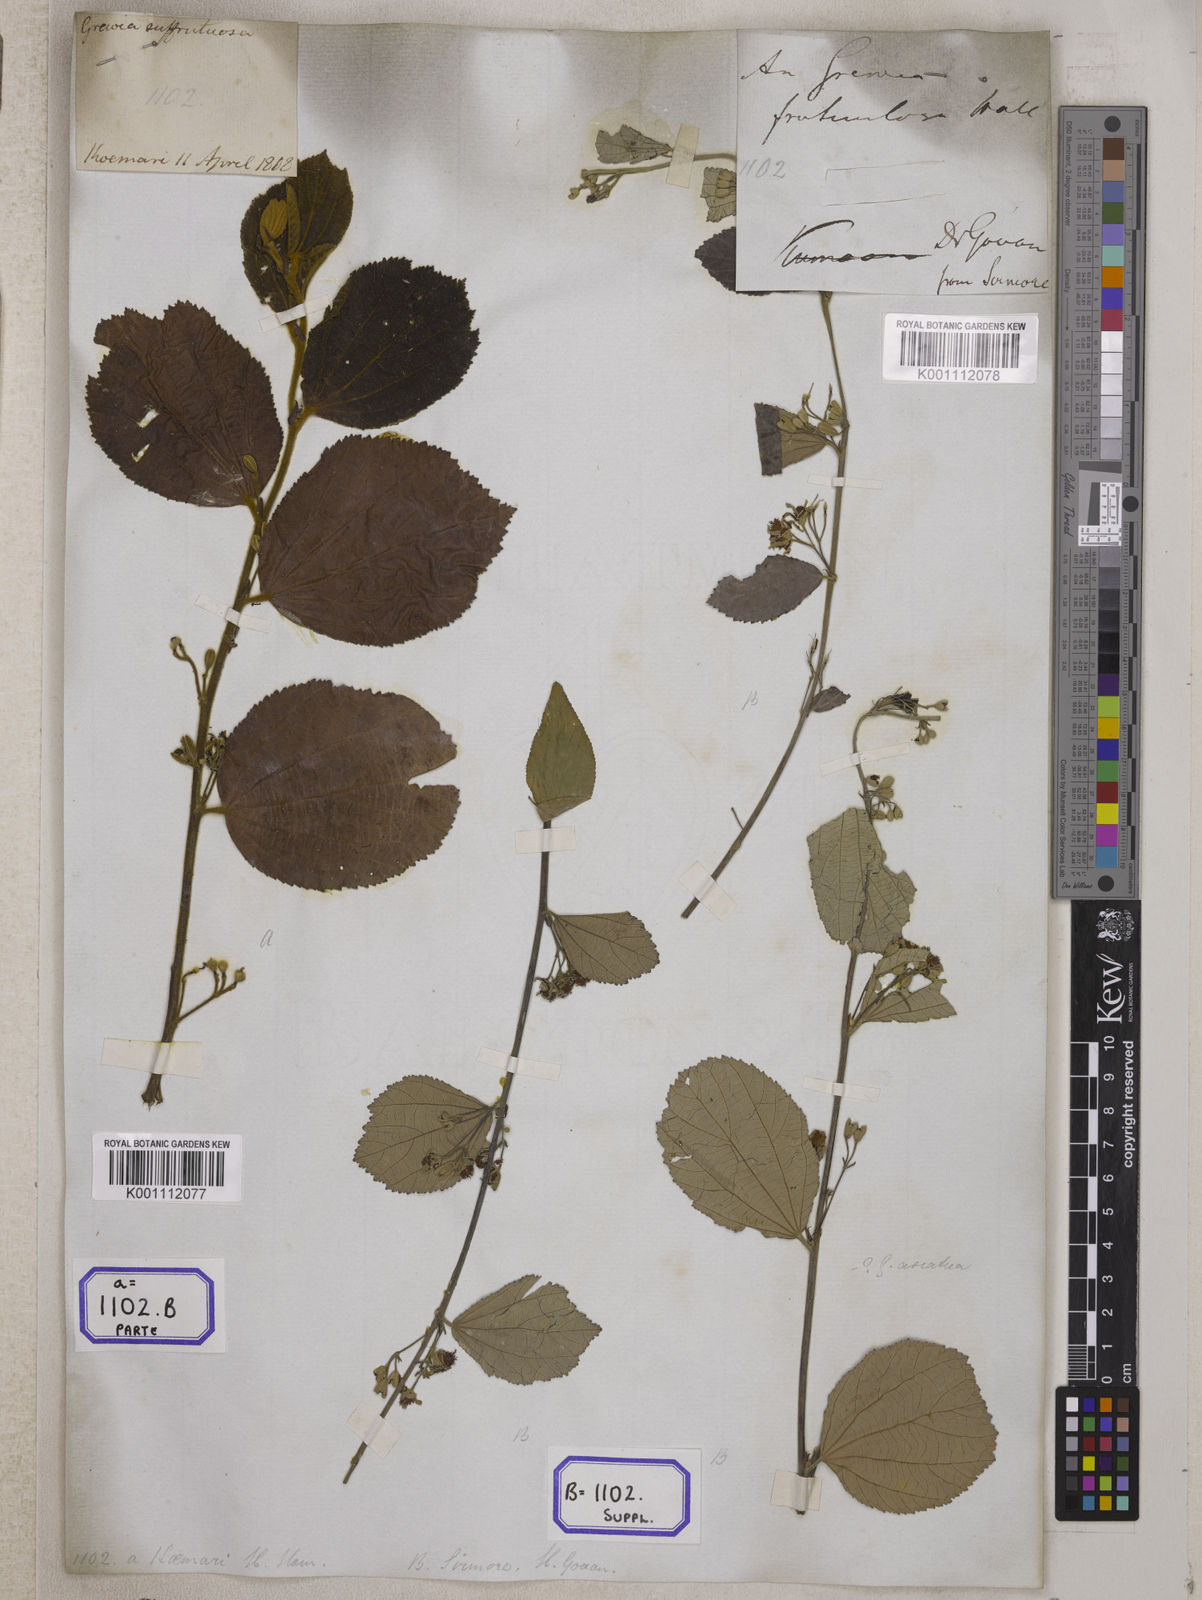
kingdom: Plantae
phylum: Tracheophyta
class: Magnoliopsida
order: Malvales
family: Malvaceae
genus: Grewia
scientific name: Grewia sapida
